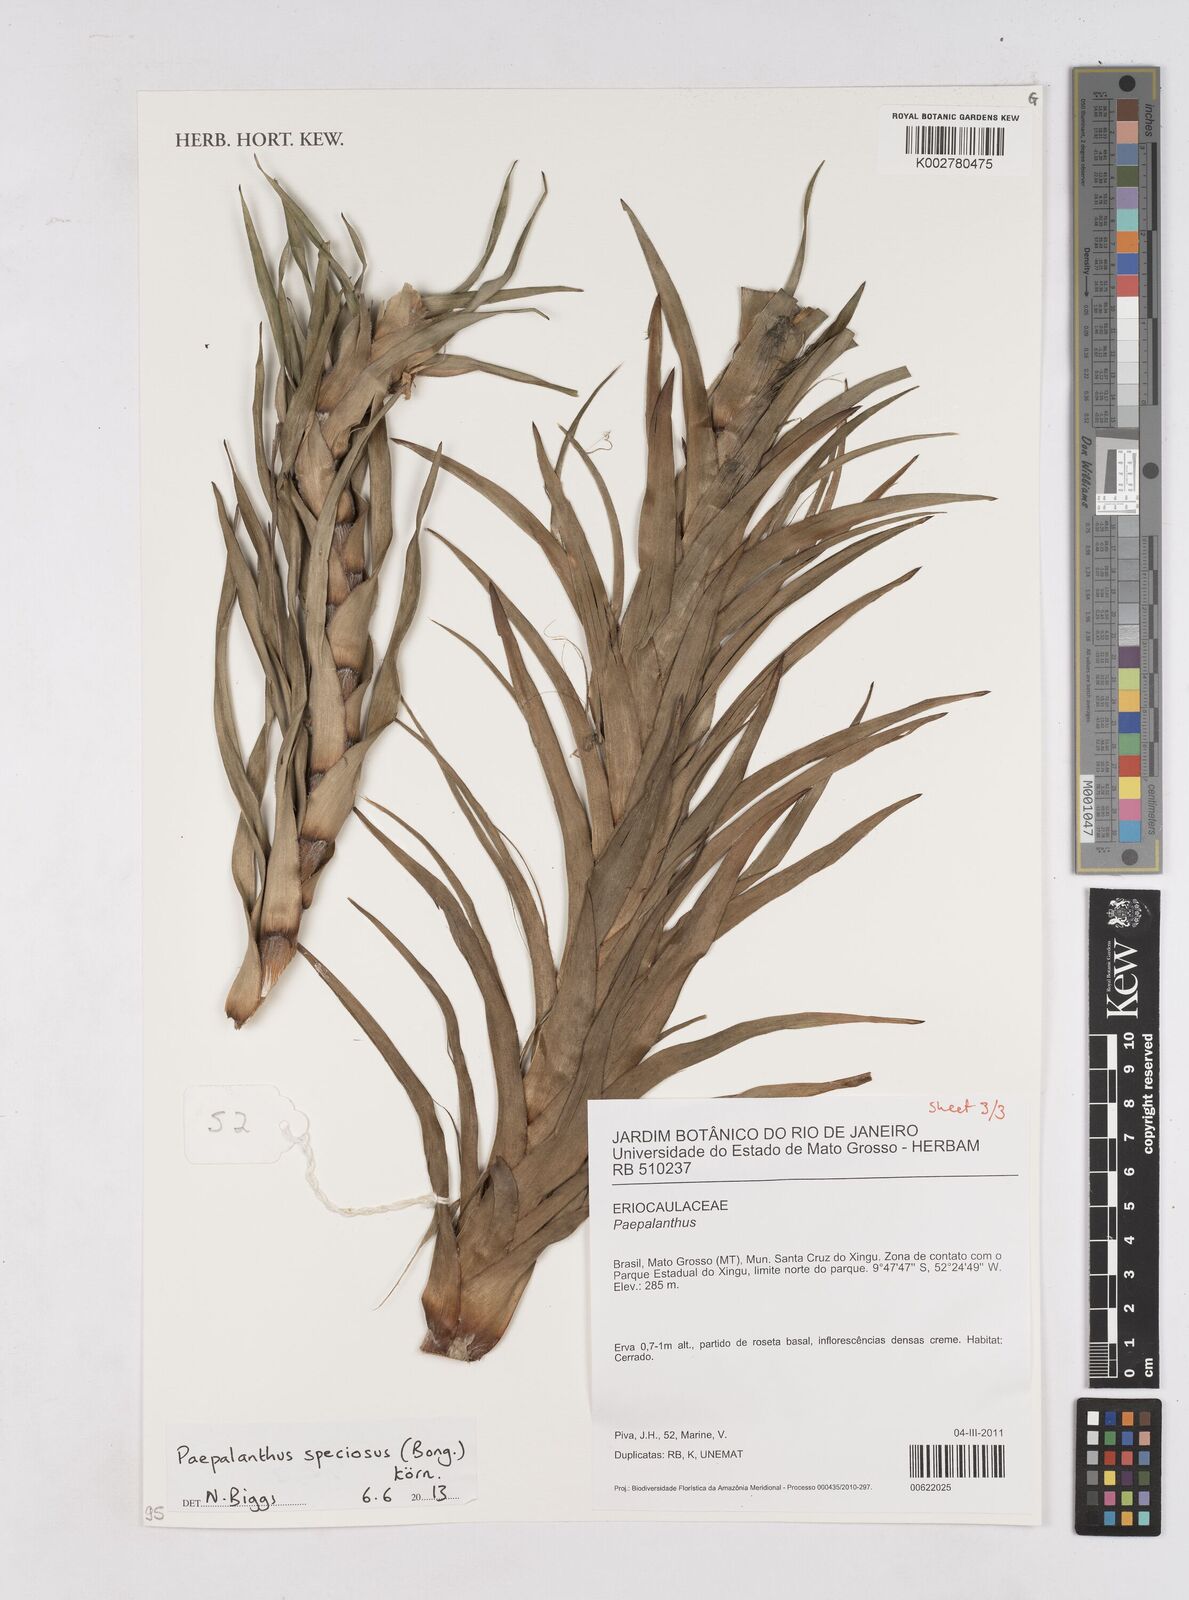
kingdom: Plantae
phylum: Tracheophyta
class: Liliopsida
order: Poales
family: Eriocaulaceae
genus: Paepalanthus
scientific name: Paepalanthus chiquitensis
